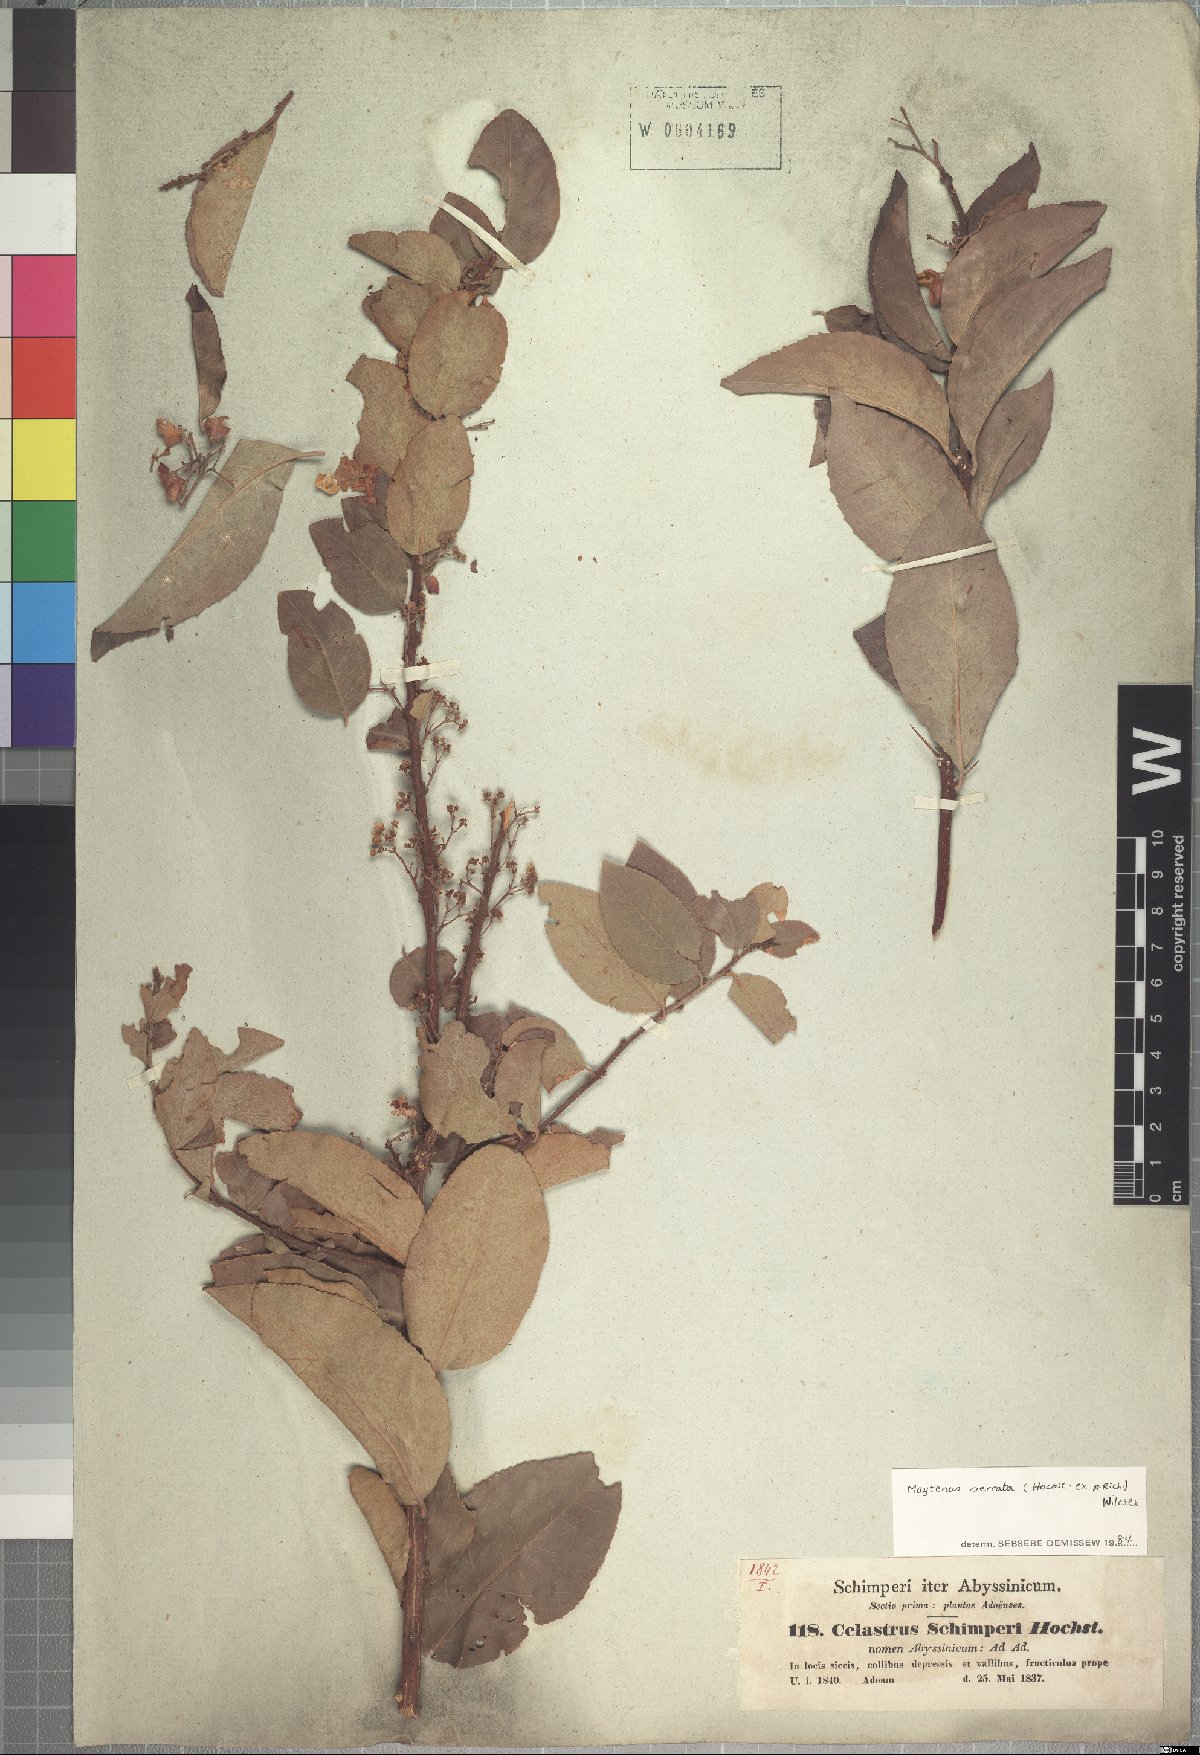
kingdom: Plantae
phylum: Tracheophyta
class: Magnoliopsida
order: Celastrales
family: Celastraceae
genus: Gymnosporia
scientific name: Gymnosporia serrata
